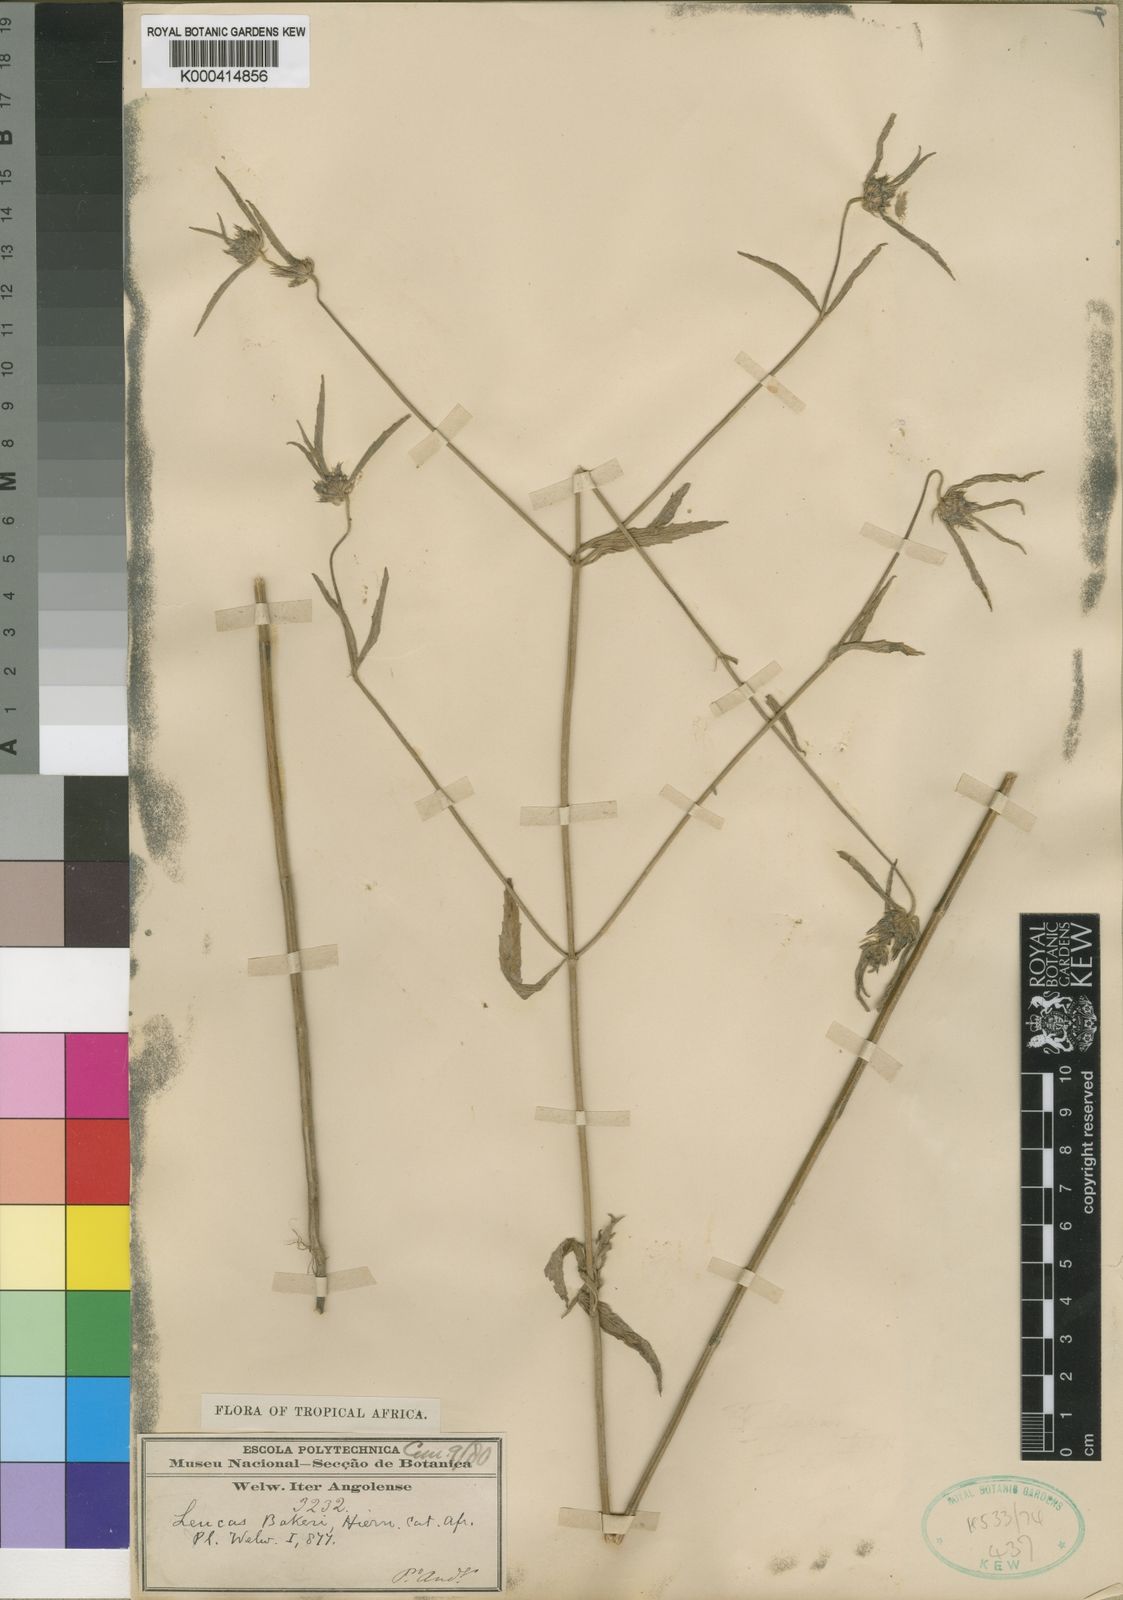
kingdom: Plantae
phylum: Tracheophyta
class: Magnoliopsida
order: Lamiales
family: Lamiaceae
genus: Leucas
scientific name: Leucas bakeri
